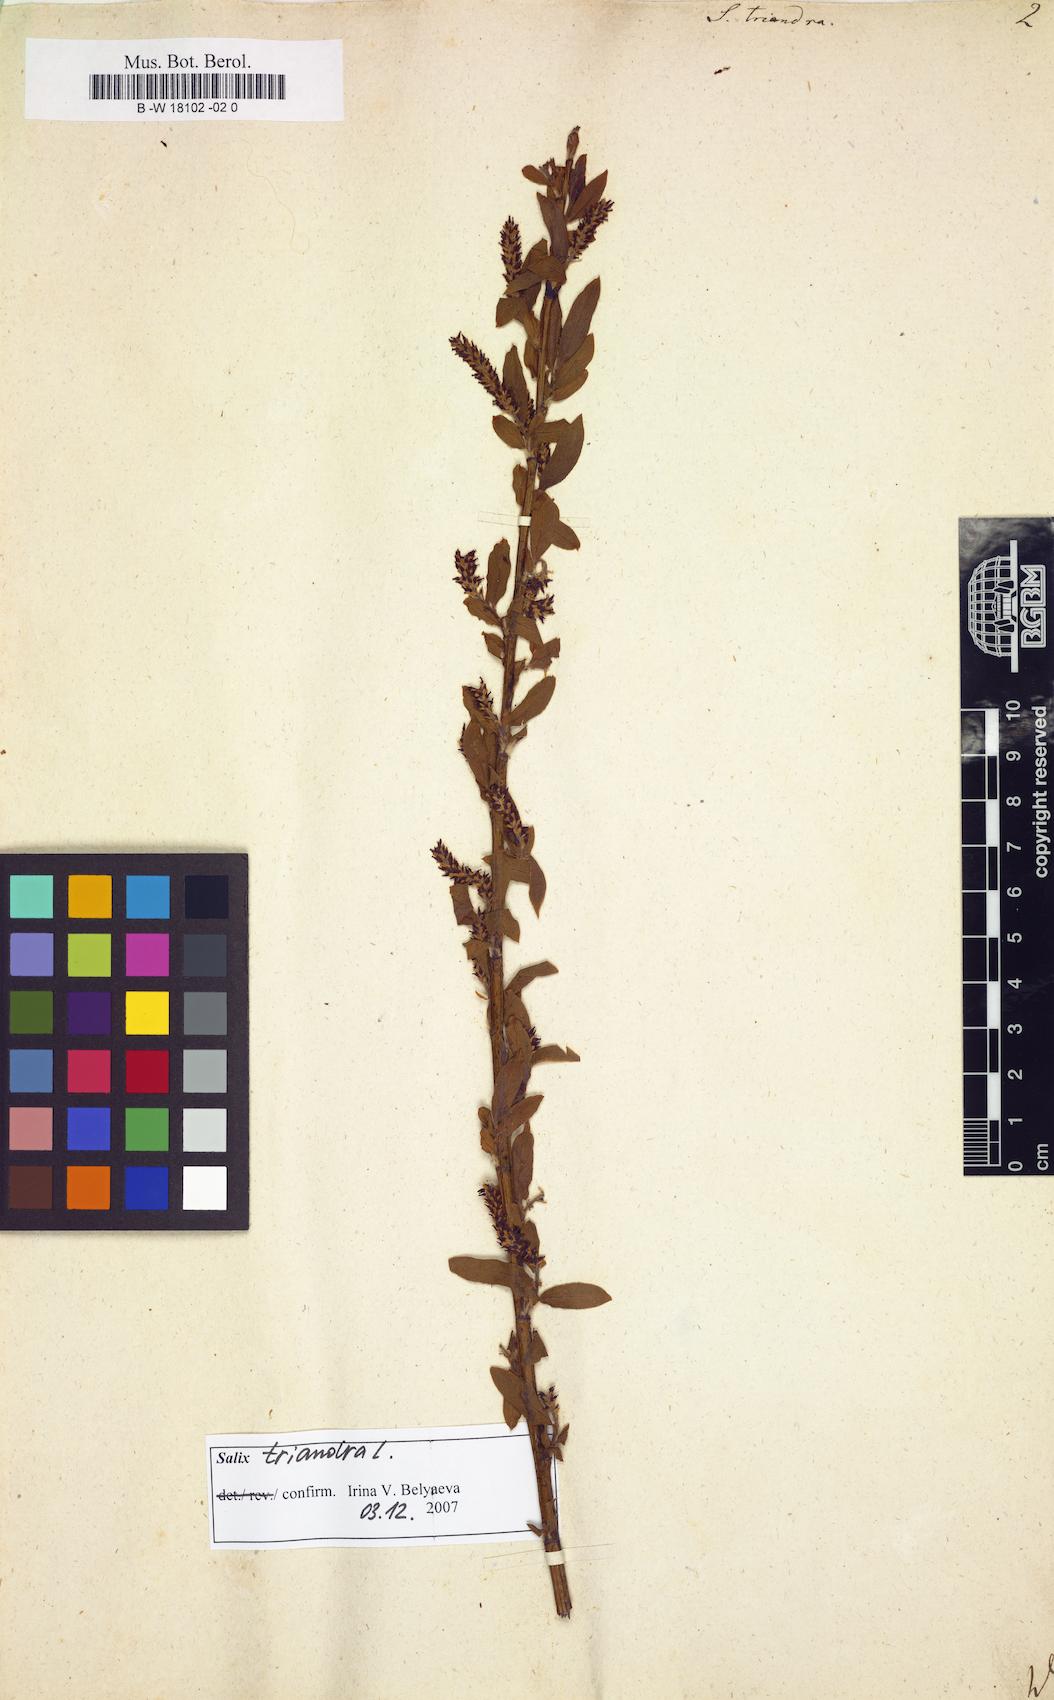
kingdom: Plantae
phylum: Tracheophyta
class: Magnoliopsida
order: Malpighiales
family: Salicaceae
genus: Salix
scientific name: Salix triandra
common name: Almond willow
